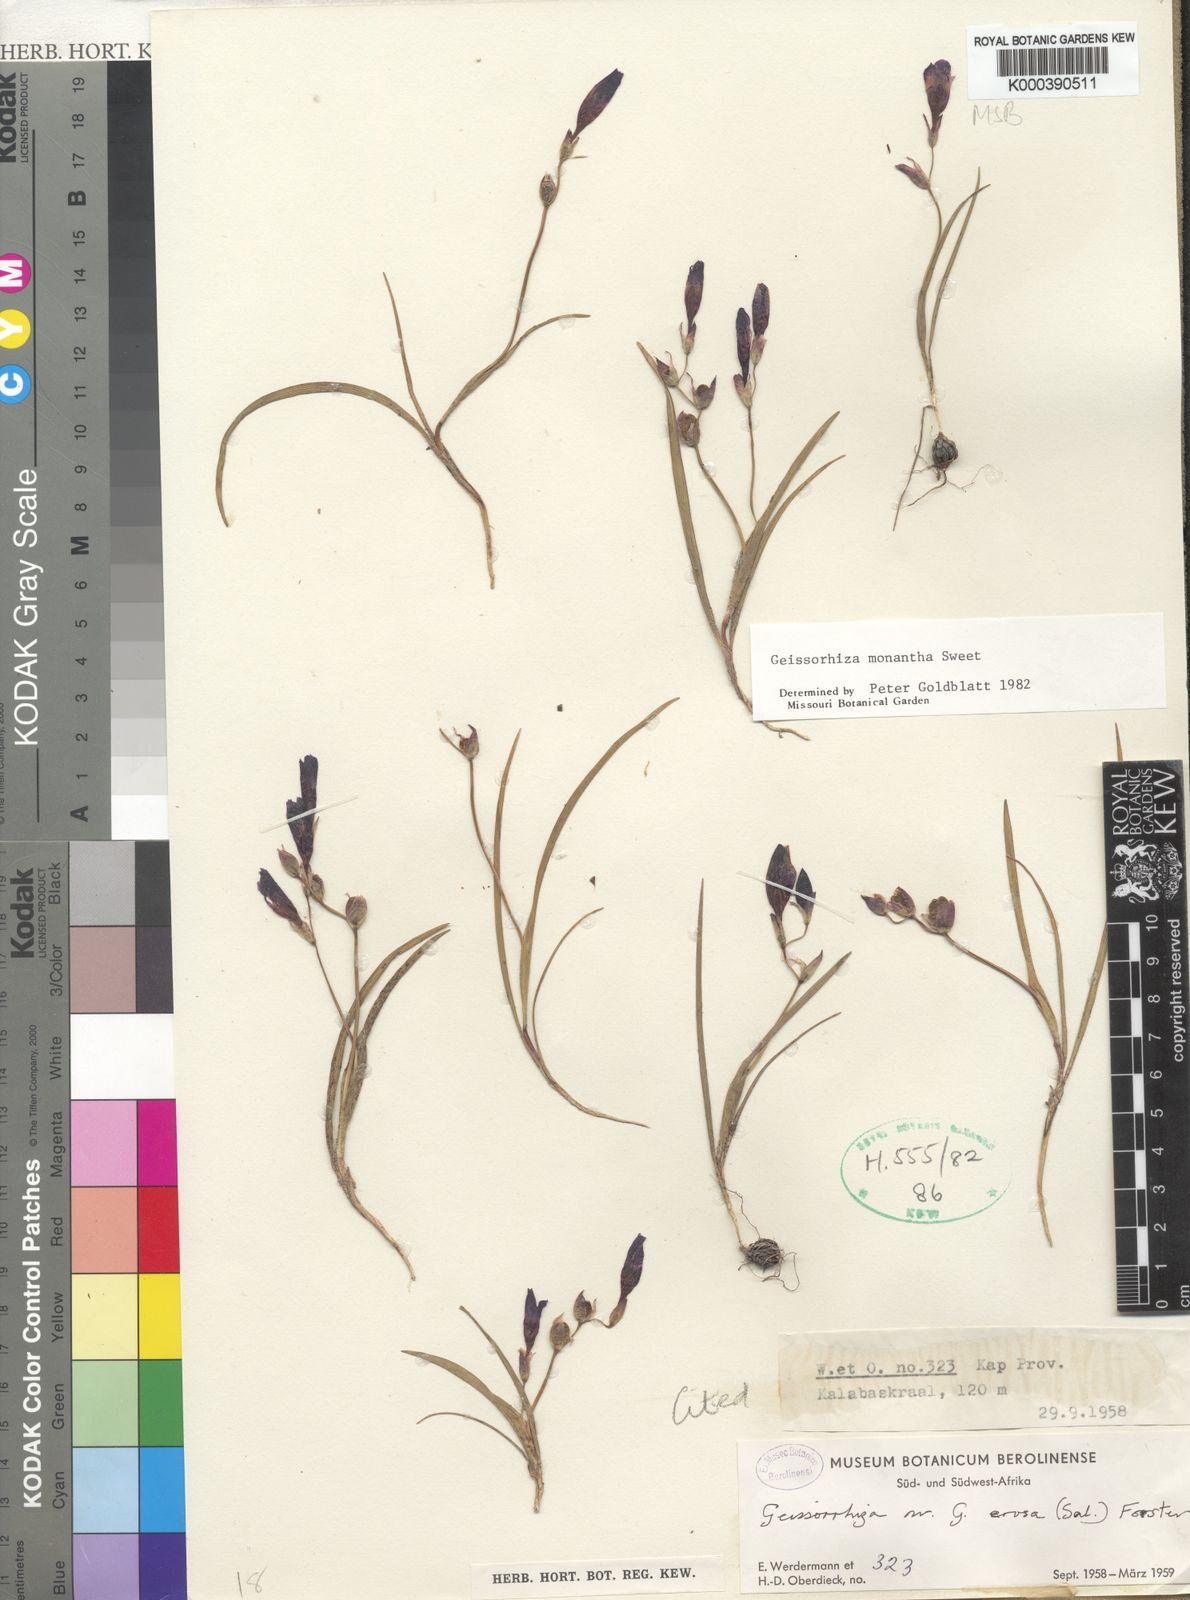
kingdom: Plantae
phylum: Tracheophyta
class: Liliopsida
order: Asparagales
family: Iridaceae
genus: Geissorhiza
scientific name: Geissorhiza eurystigma
